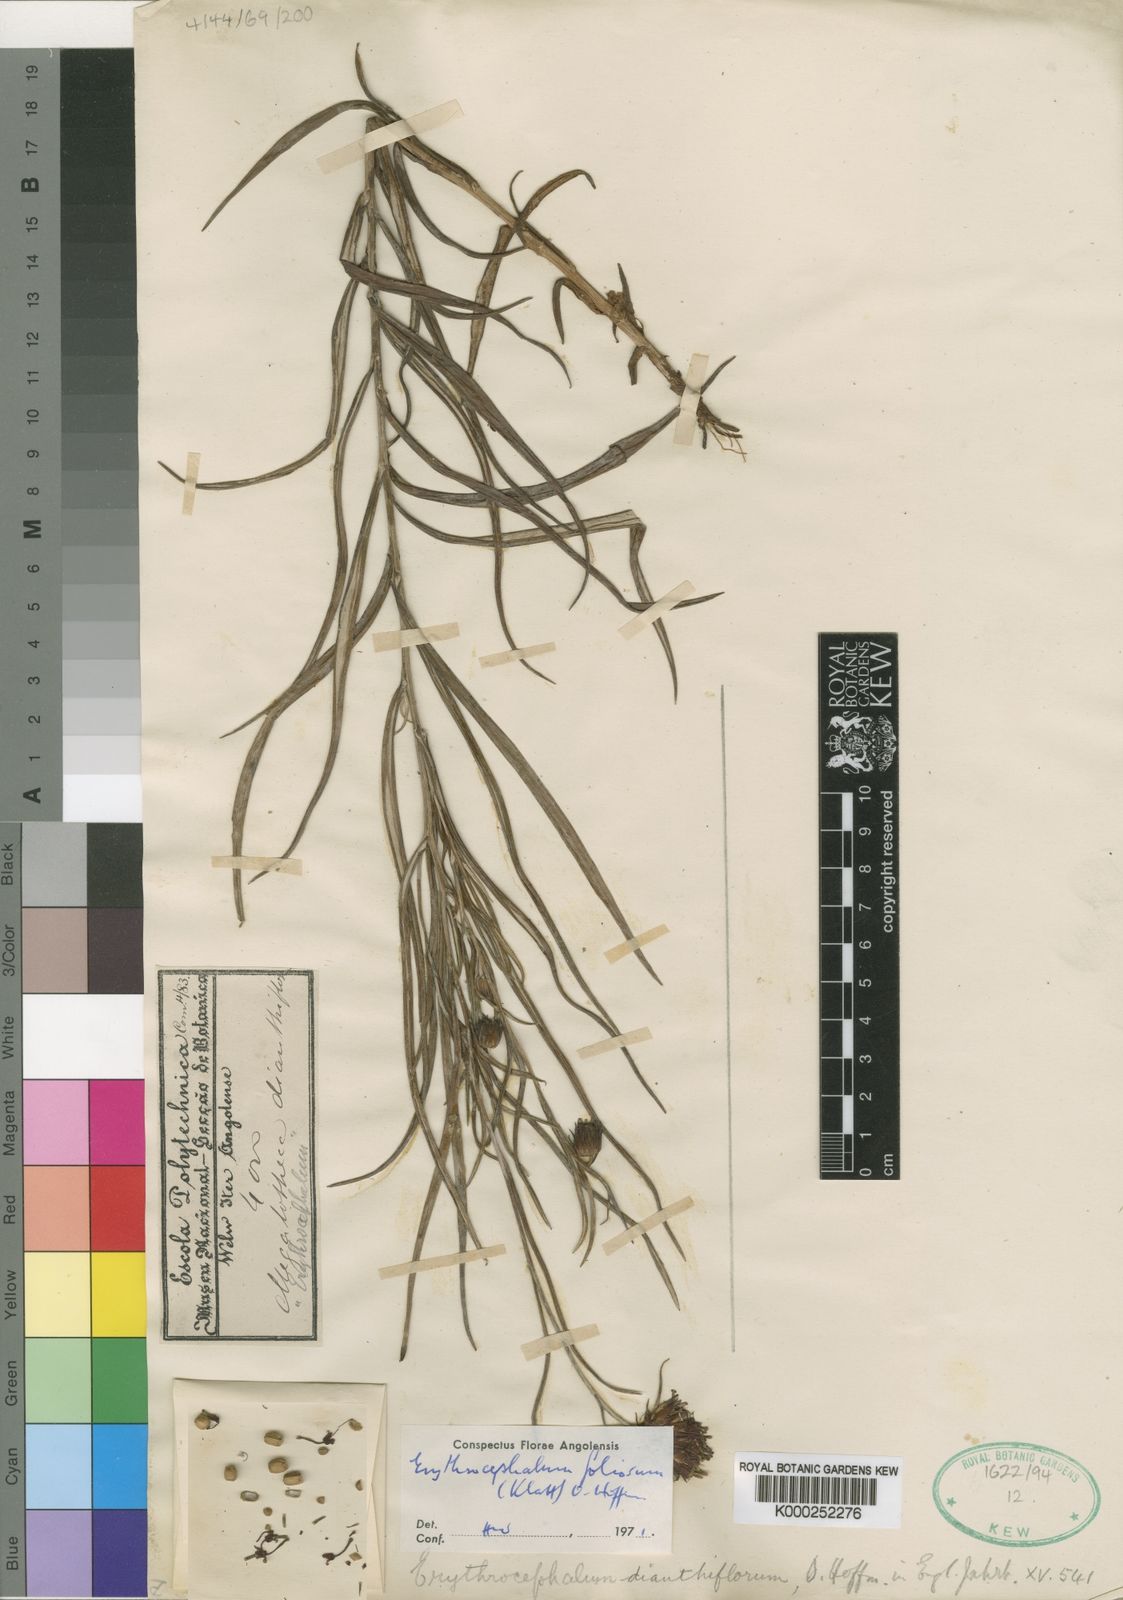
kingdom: Plantae
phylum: Tracheophyta
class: Magnoliopsida
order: Asterales
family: Asteraceae
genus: Erythrocephalum
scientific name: Erythrocephalum dianthiflorum
